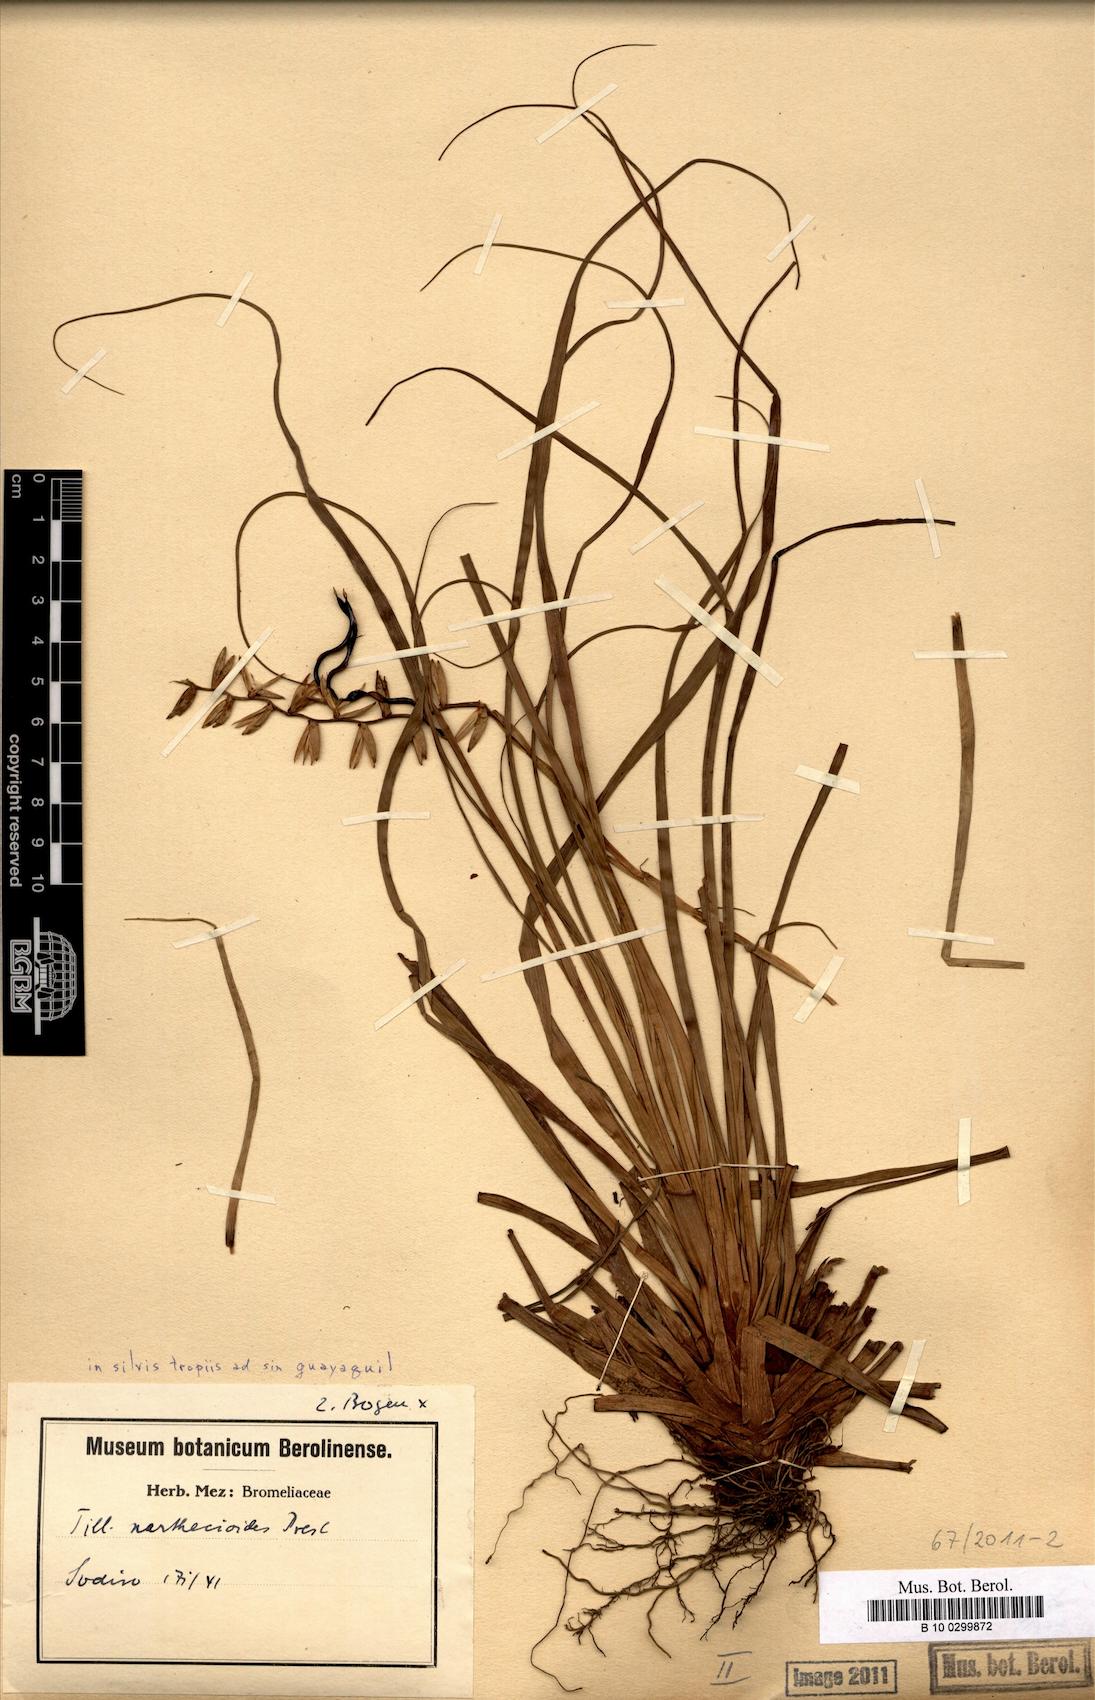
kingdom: Plantae
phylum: Tracheophyta
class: Liliopsida
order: Poales
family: Bromeliaceae
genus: Lemeltonia
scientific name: Lemeltonia narthecioides
